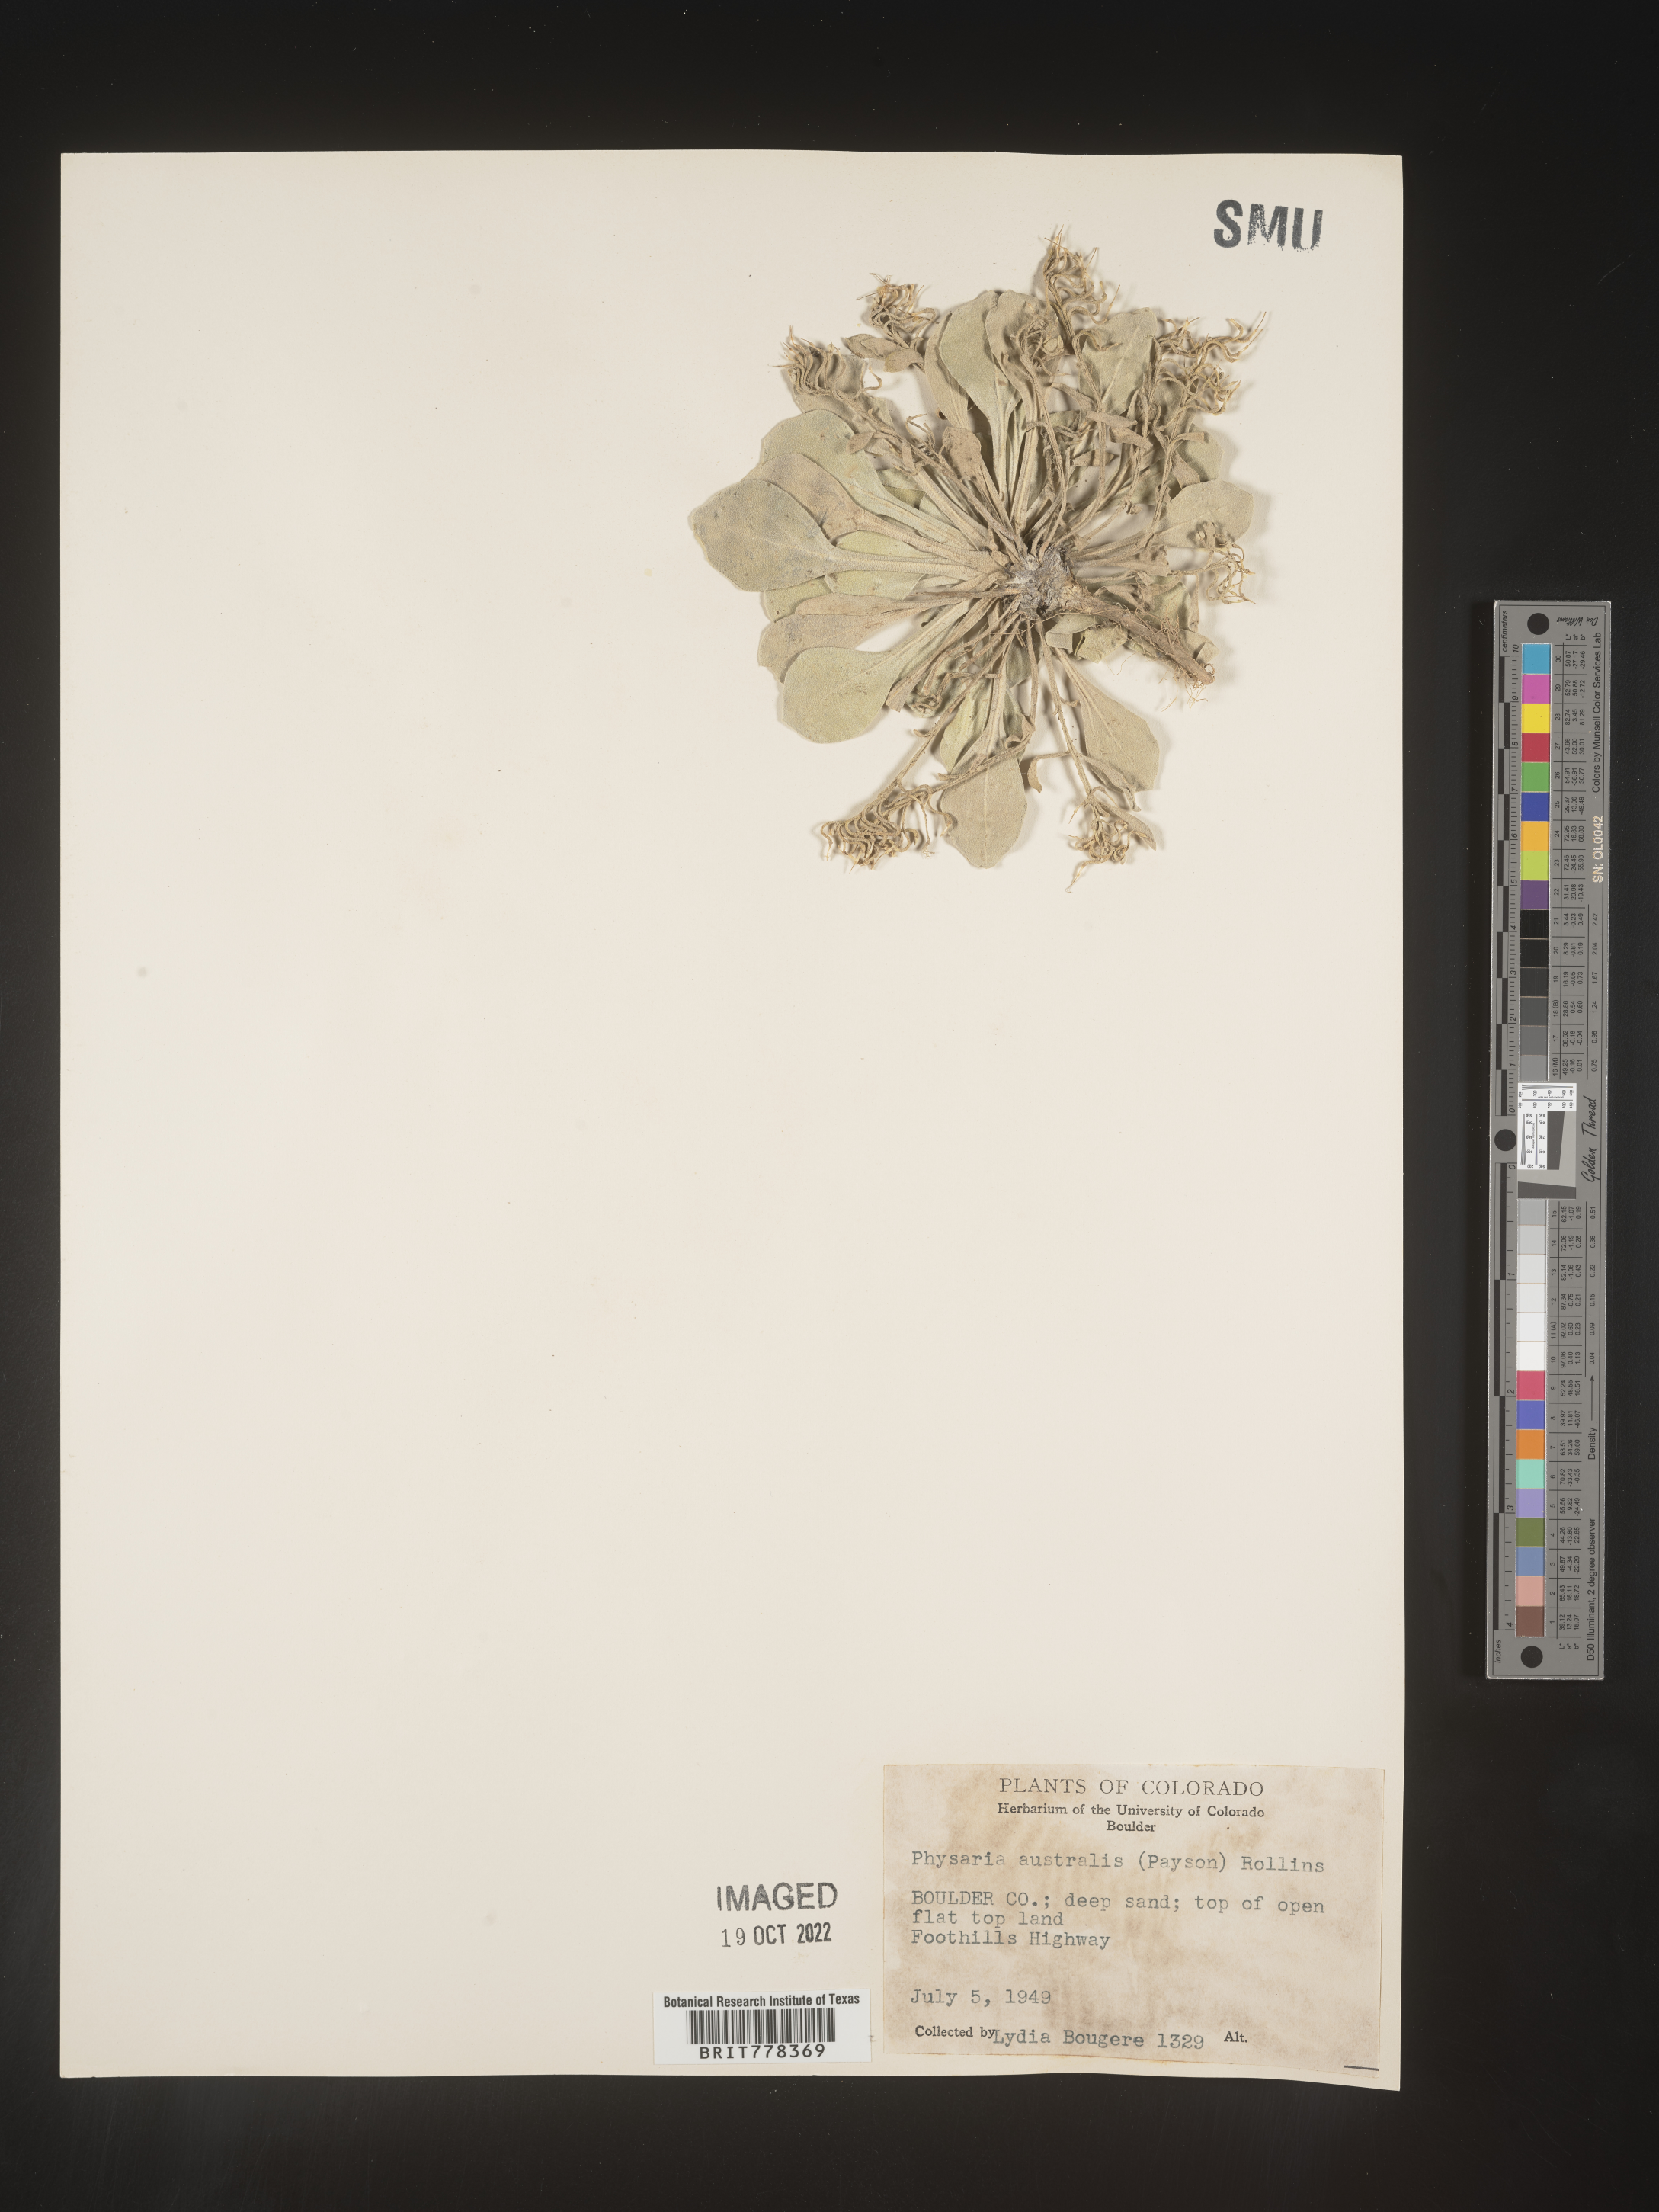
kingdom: Plantae
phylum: Tracheophyta
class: Magnoliopsida
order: Brassicales
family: Brassicaceae
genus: Physaria
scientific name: Physaria
